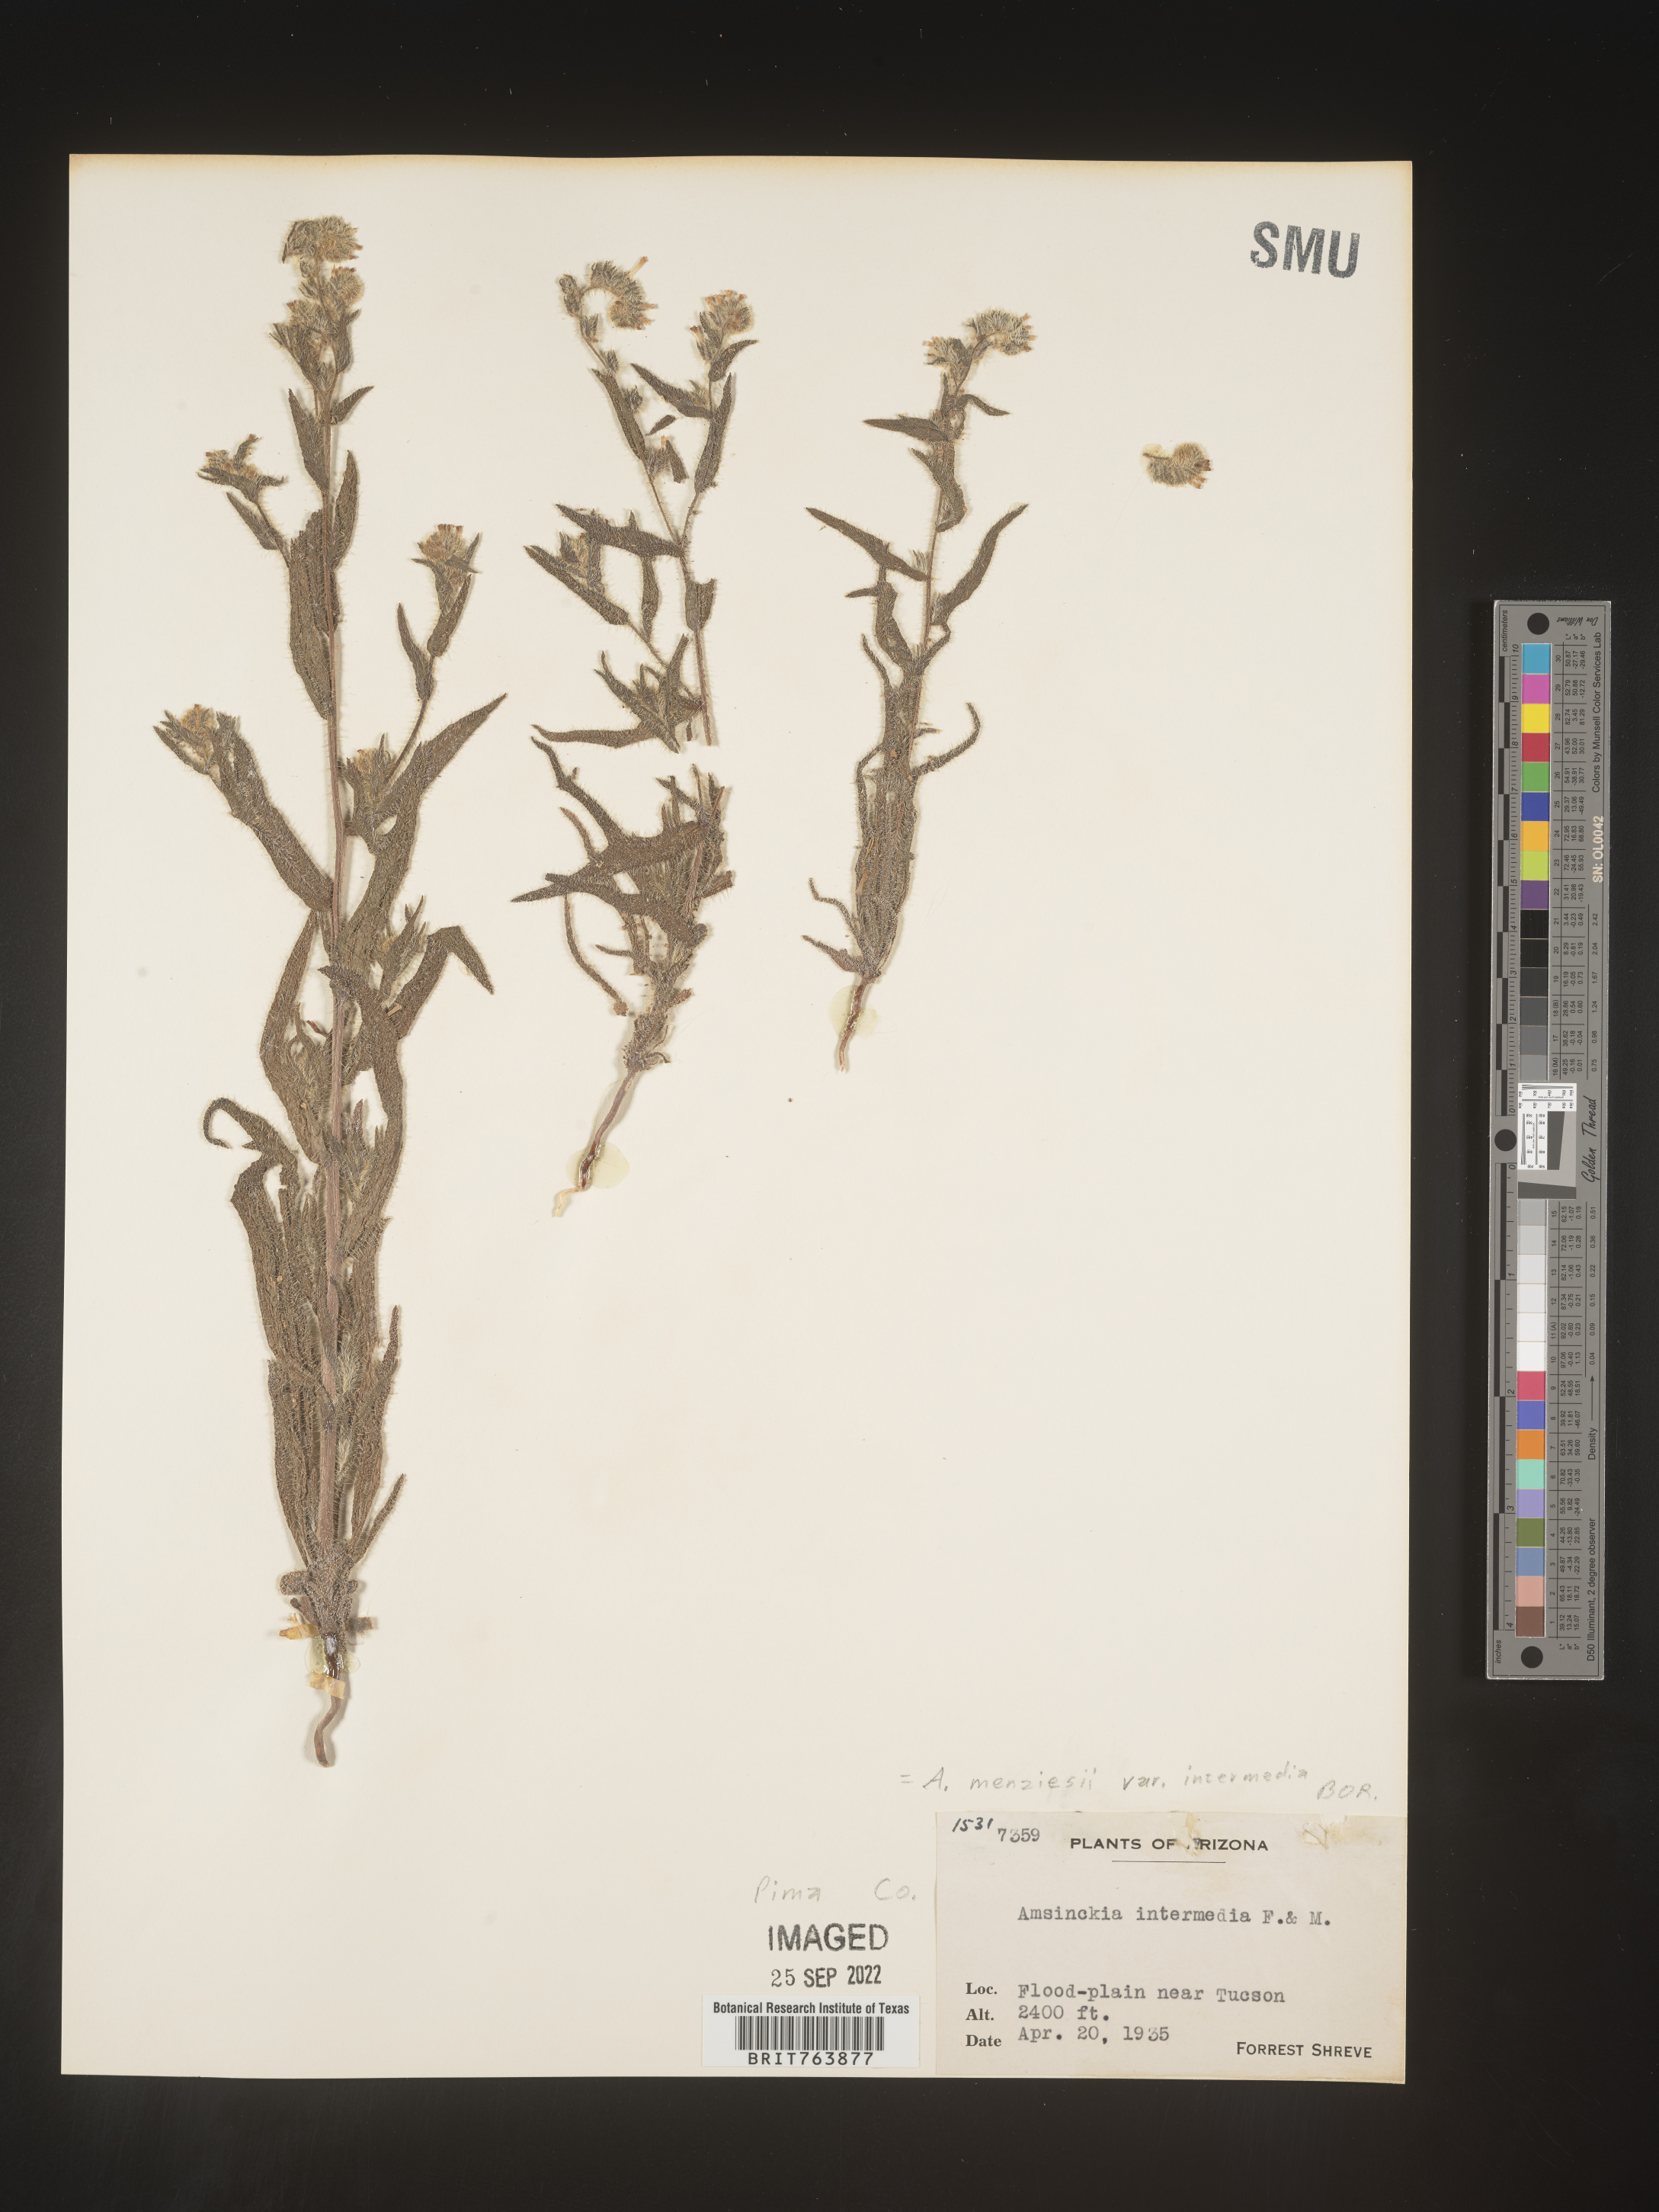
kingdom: Plantae
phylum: Tracheophyta
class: Magnoliopsida
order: Boraginales
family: Boraginaceae
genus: Amsinckia
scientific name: Amsinckia menziesii
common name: Menzies' fiddleneck
